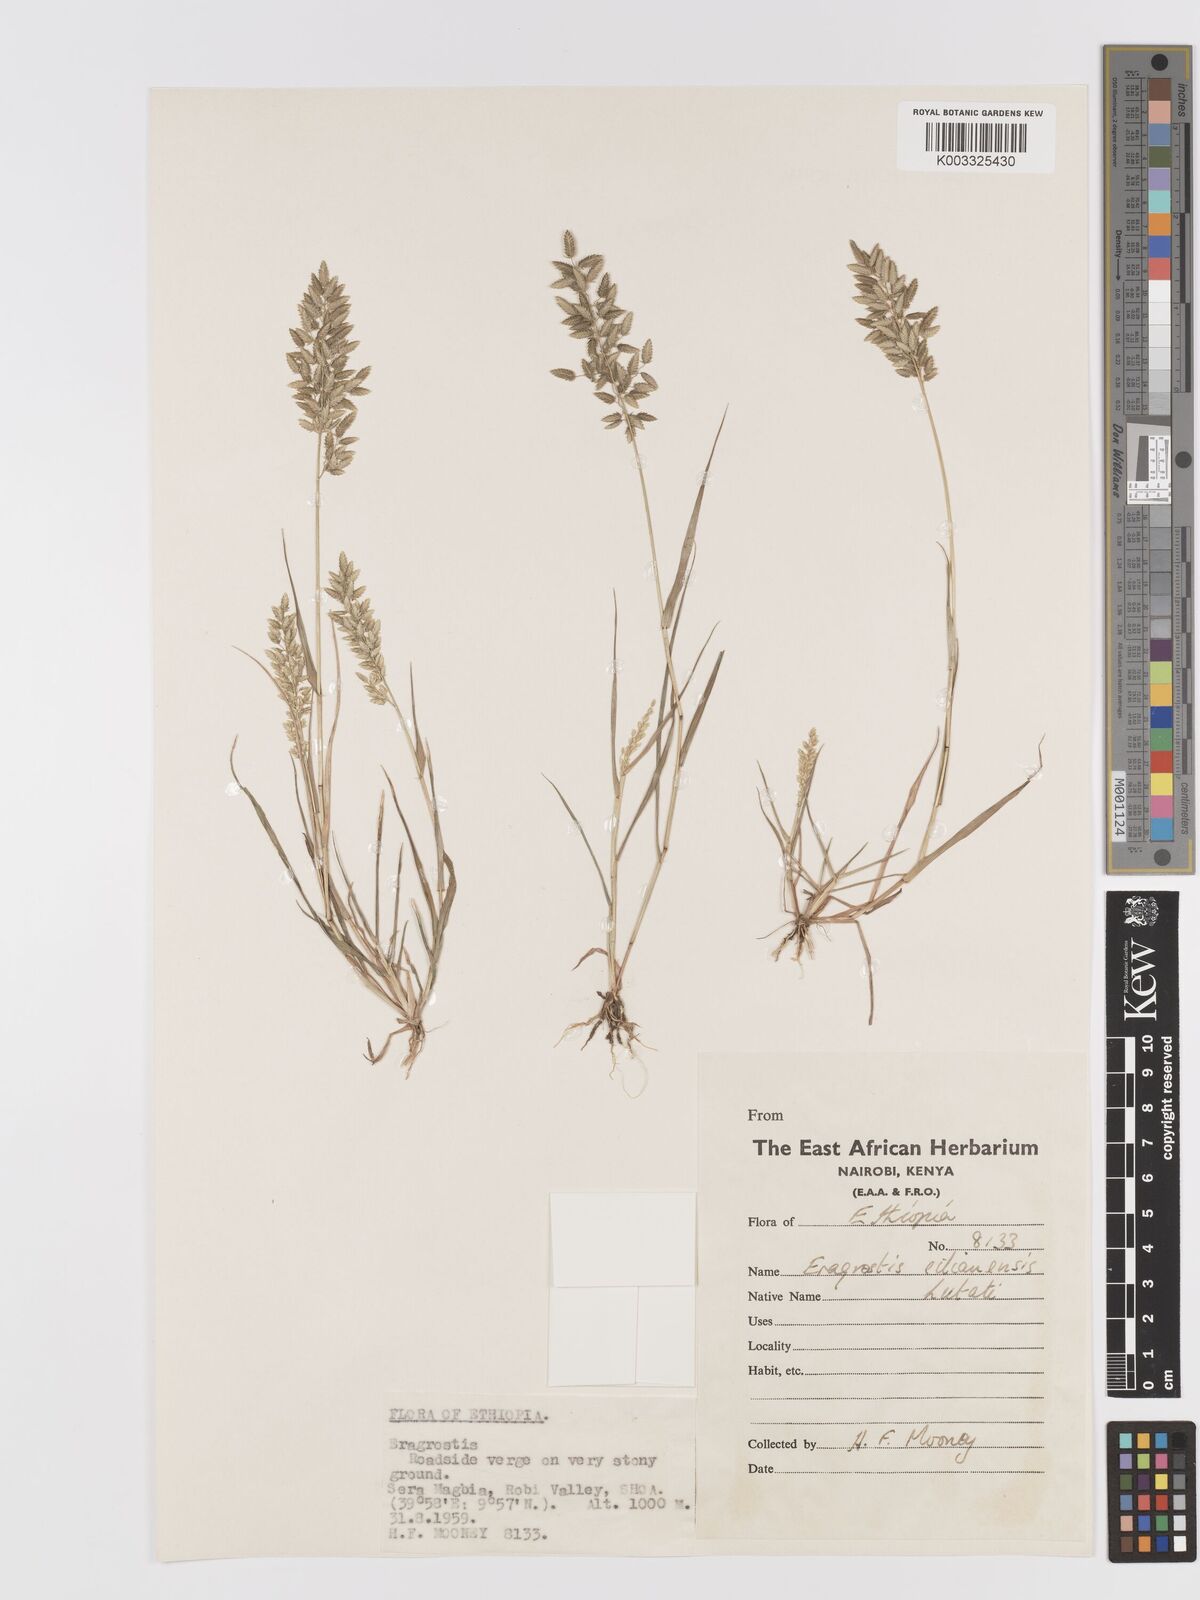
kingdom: Plantae
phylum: Tracheophyta
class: Liliopsida
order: Poales
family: Poaceae
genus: Eragrostis
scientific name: Eragrostis cilianensis
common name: Stinkgrass
